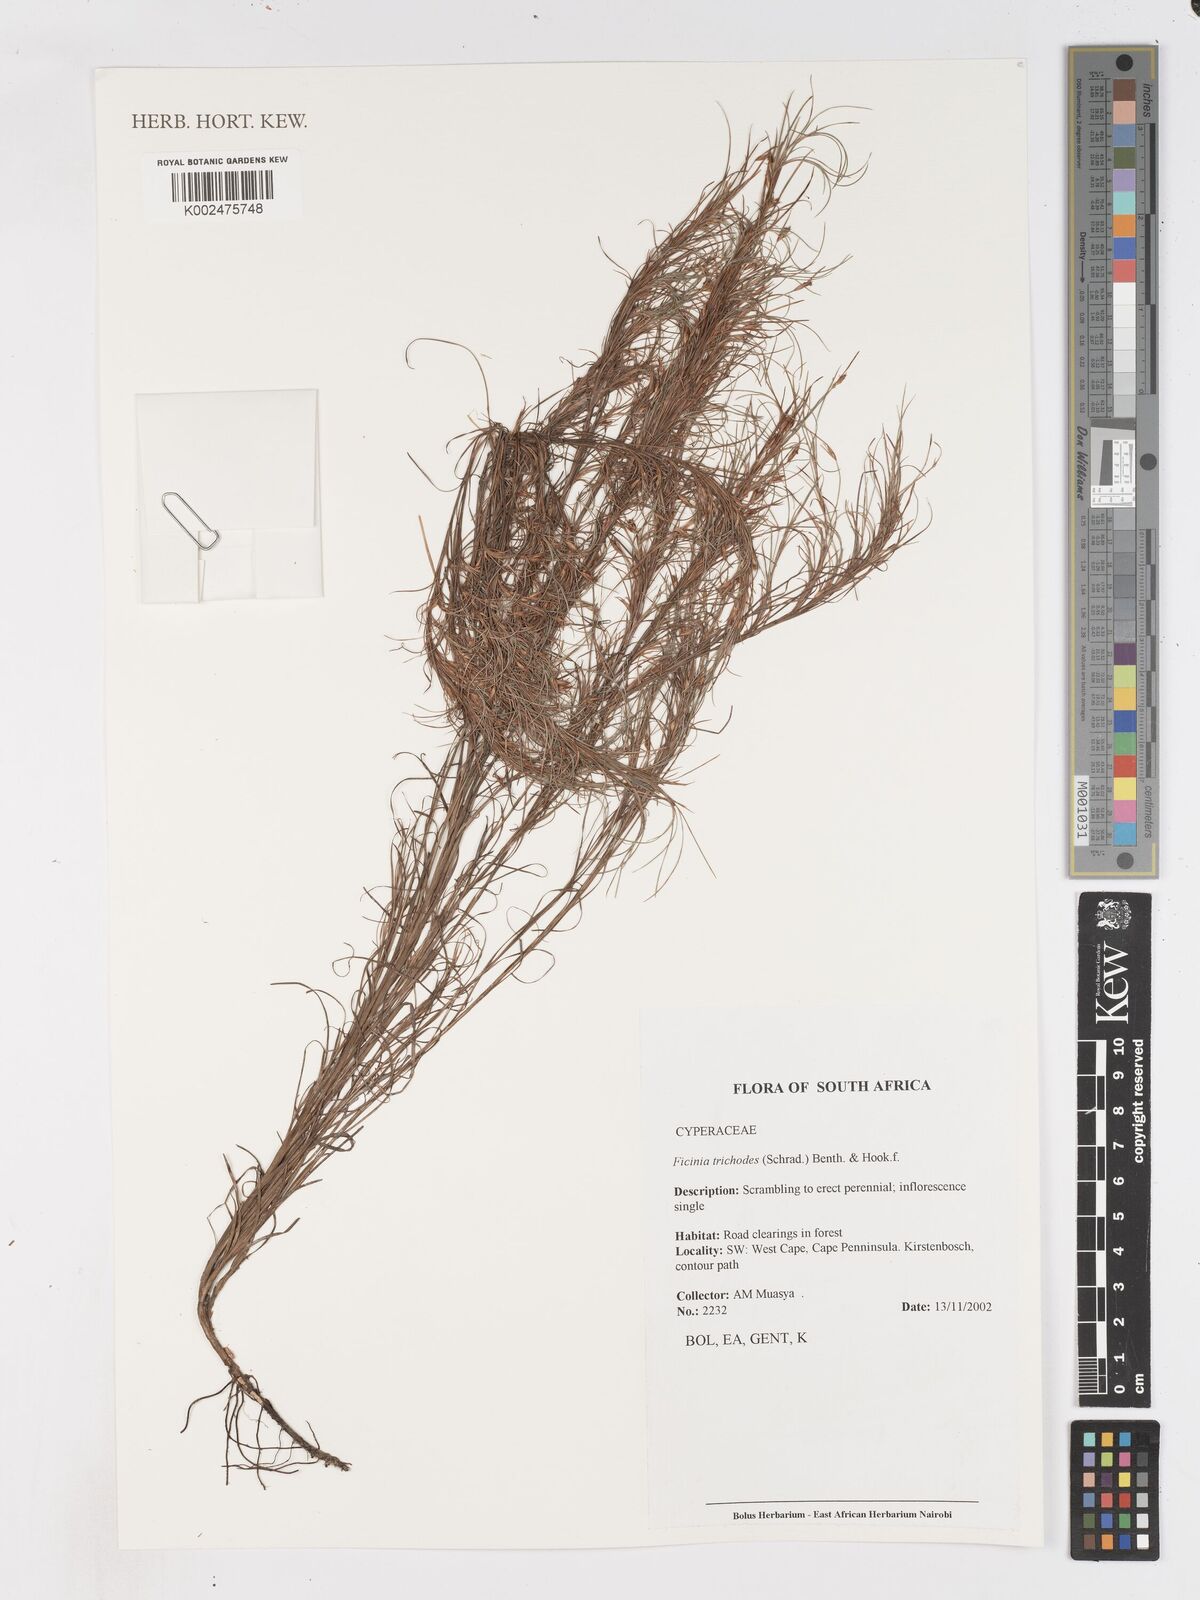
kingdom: Plantae
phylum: Tracheophyta
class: Liliopsida
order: Poales
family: Cyperaceae
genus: Ficinia
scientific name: Ficinia trichodes
